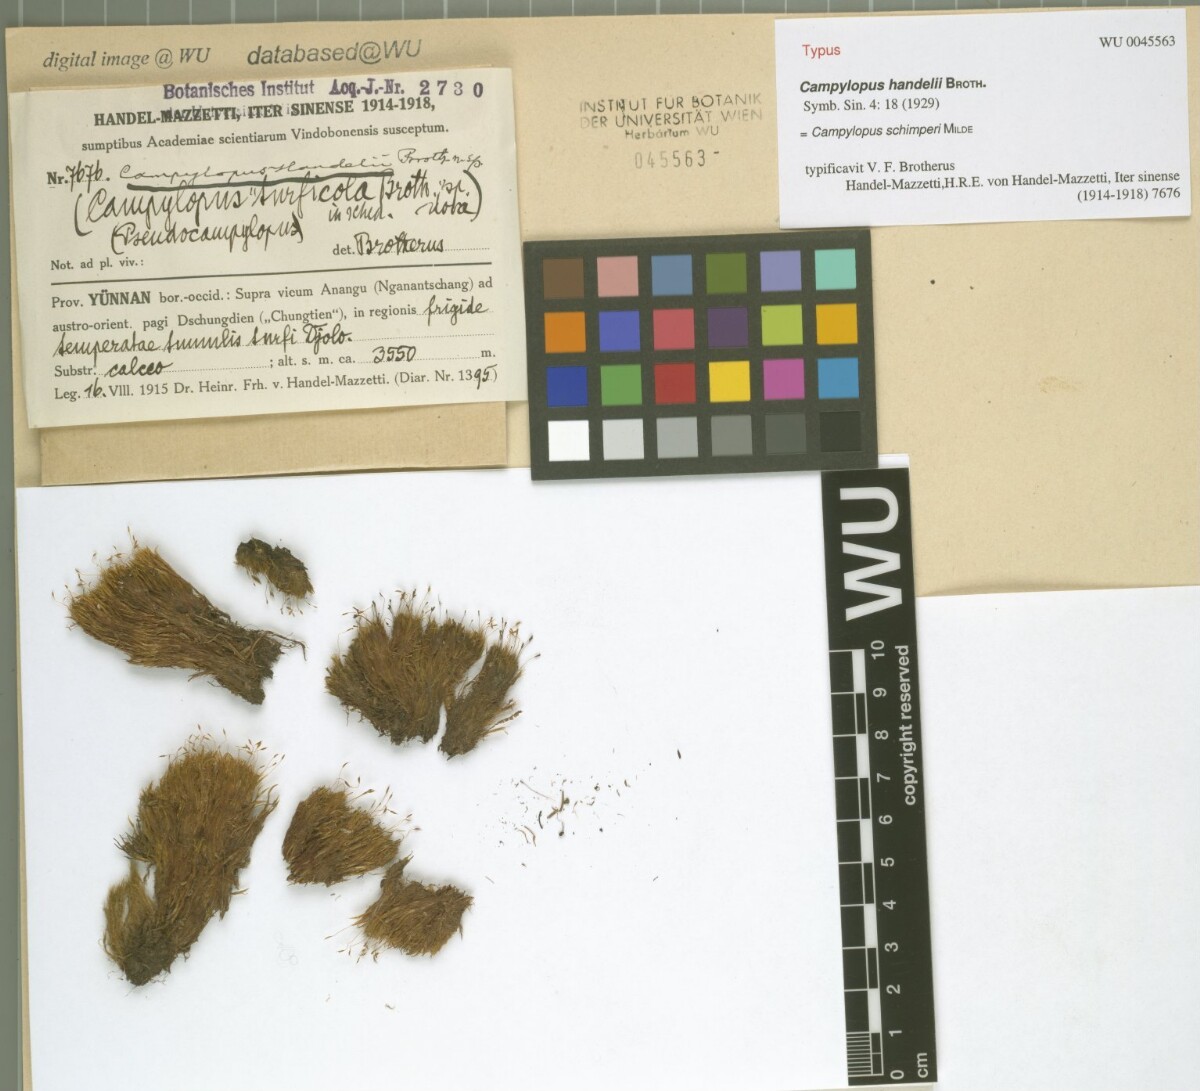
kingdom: Plantae
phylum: Bryophyta
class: Bryopsida
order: Dicranales
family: Leucobryaceae
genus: Campylopus
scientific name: Campylopus schimperi
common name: Schimper's swan-neck moss
